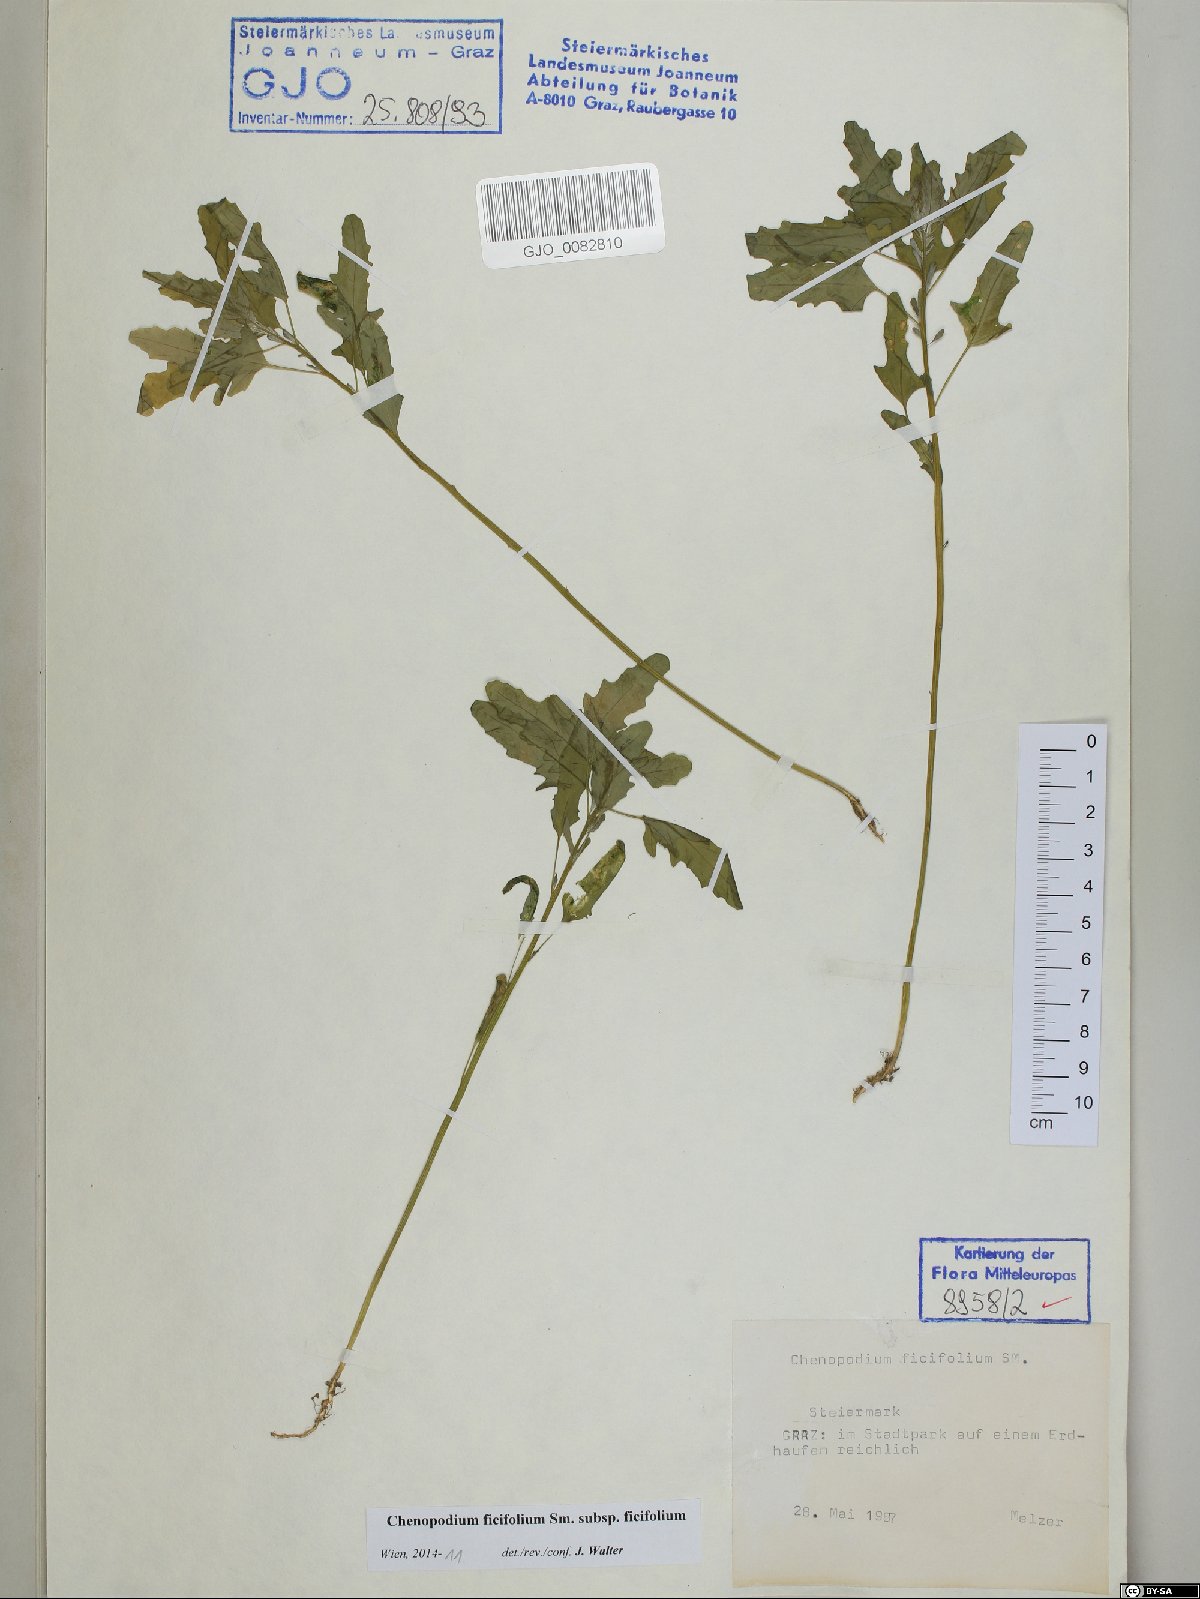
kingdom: Plantae
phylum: Tracheophyta
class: Magnoliopsida
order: Caryophyllales
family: Amaranthaceae
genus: Chenopodium
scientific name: Chenopodium ficifolium
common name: Fig-leaved goosefoot
